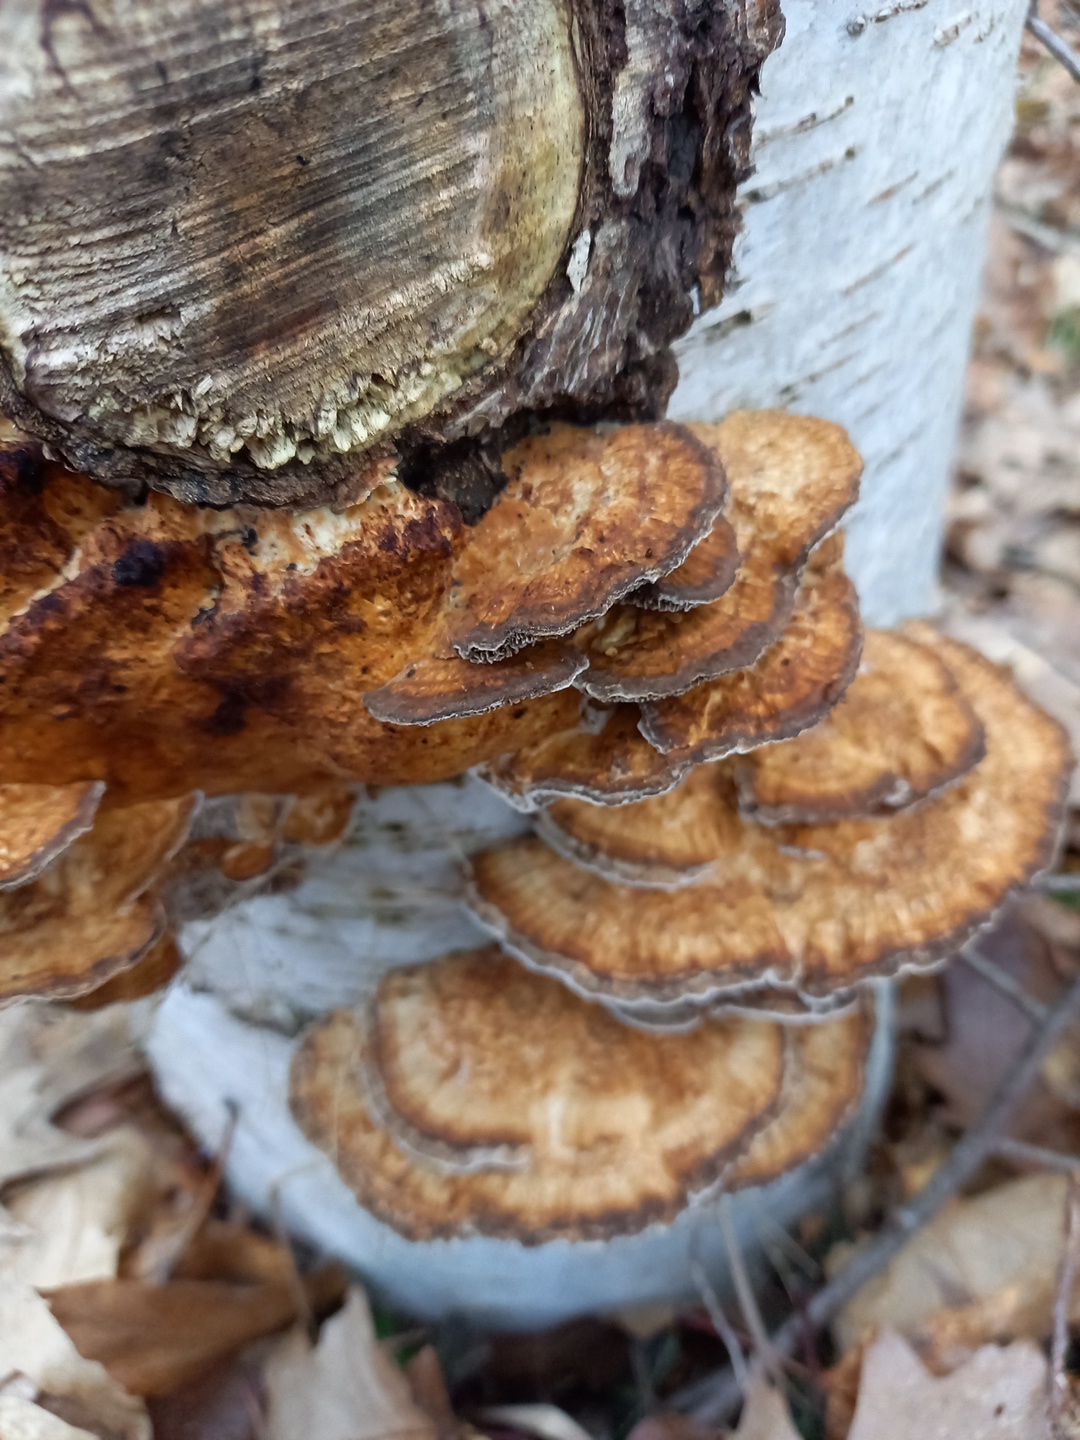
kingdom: Fungi
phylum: Basidiomycota
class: Agaricomycetes
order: Polyporales
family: Polyporaceae
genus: Daedaleopsis
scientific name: Daedaleopsis confragosa
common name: rødmende læderporesvamp
